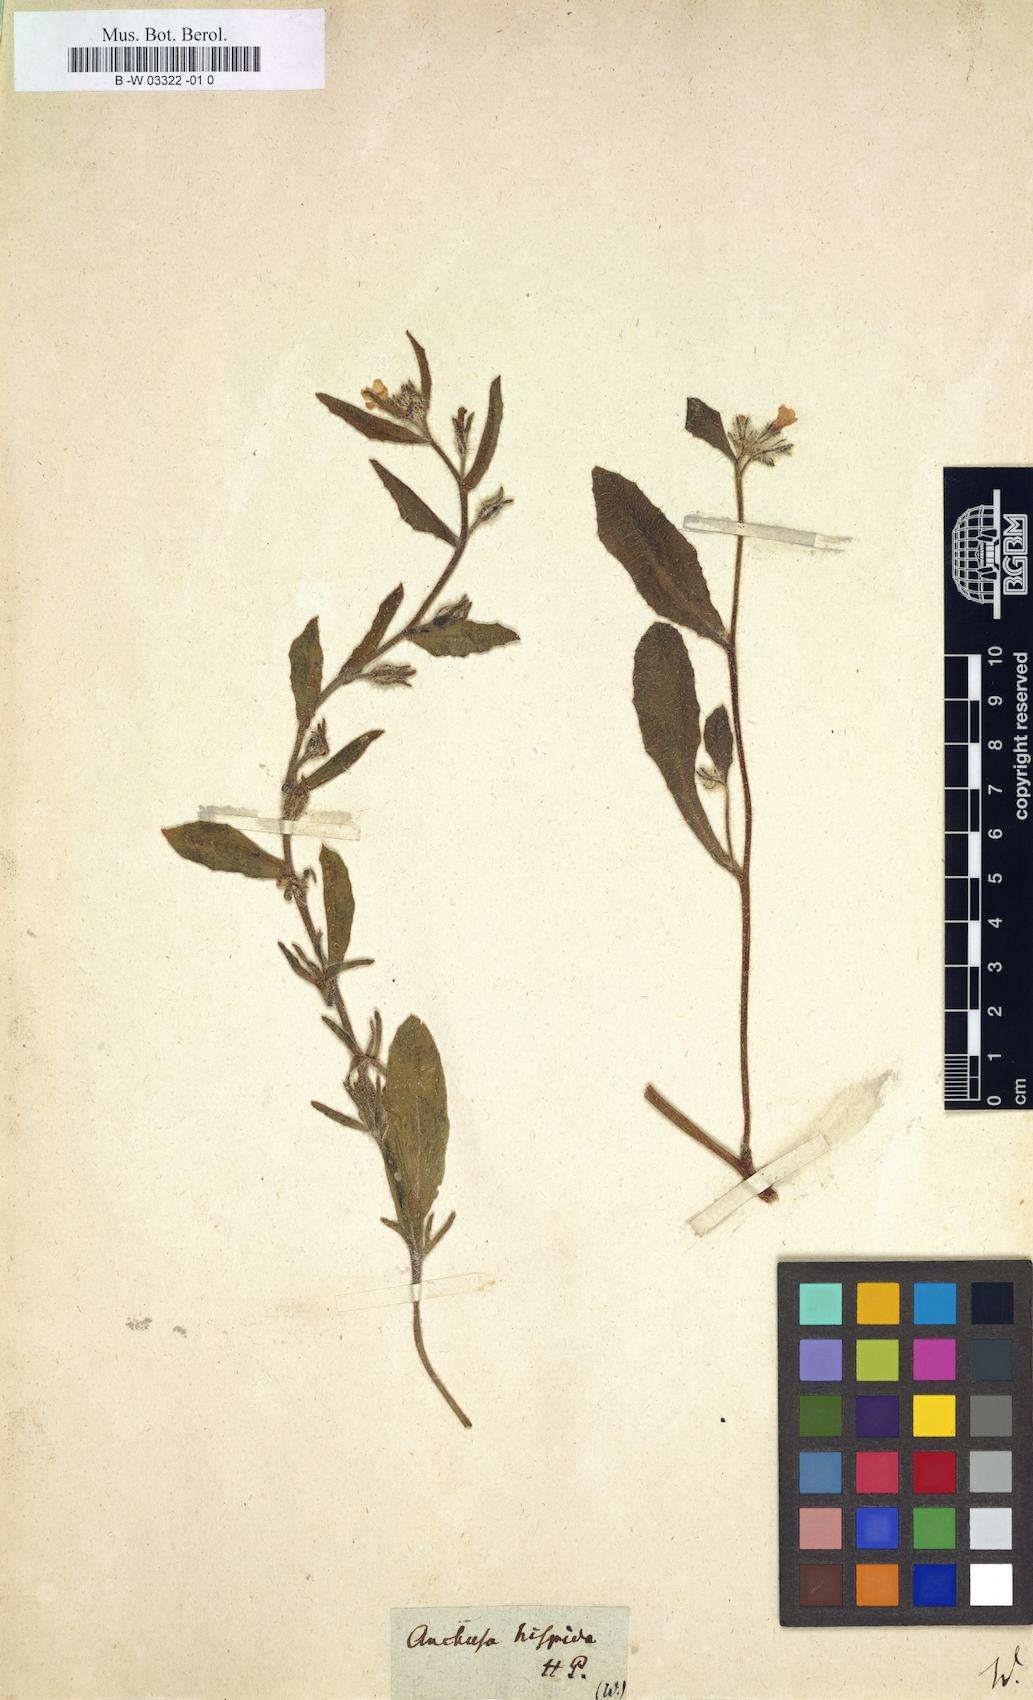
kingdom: Plantae
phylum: Tracheophyta
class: Magnoliopsida
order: Boraginales
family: Boraginaceae
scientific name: Boraginaceae
